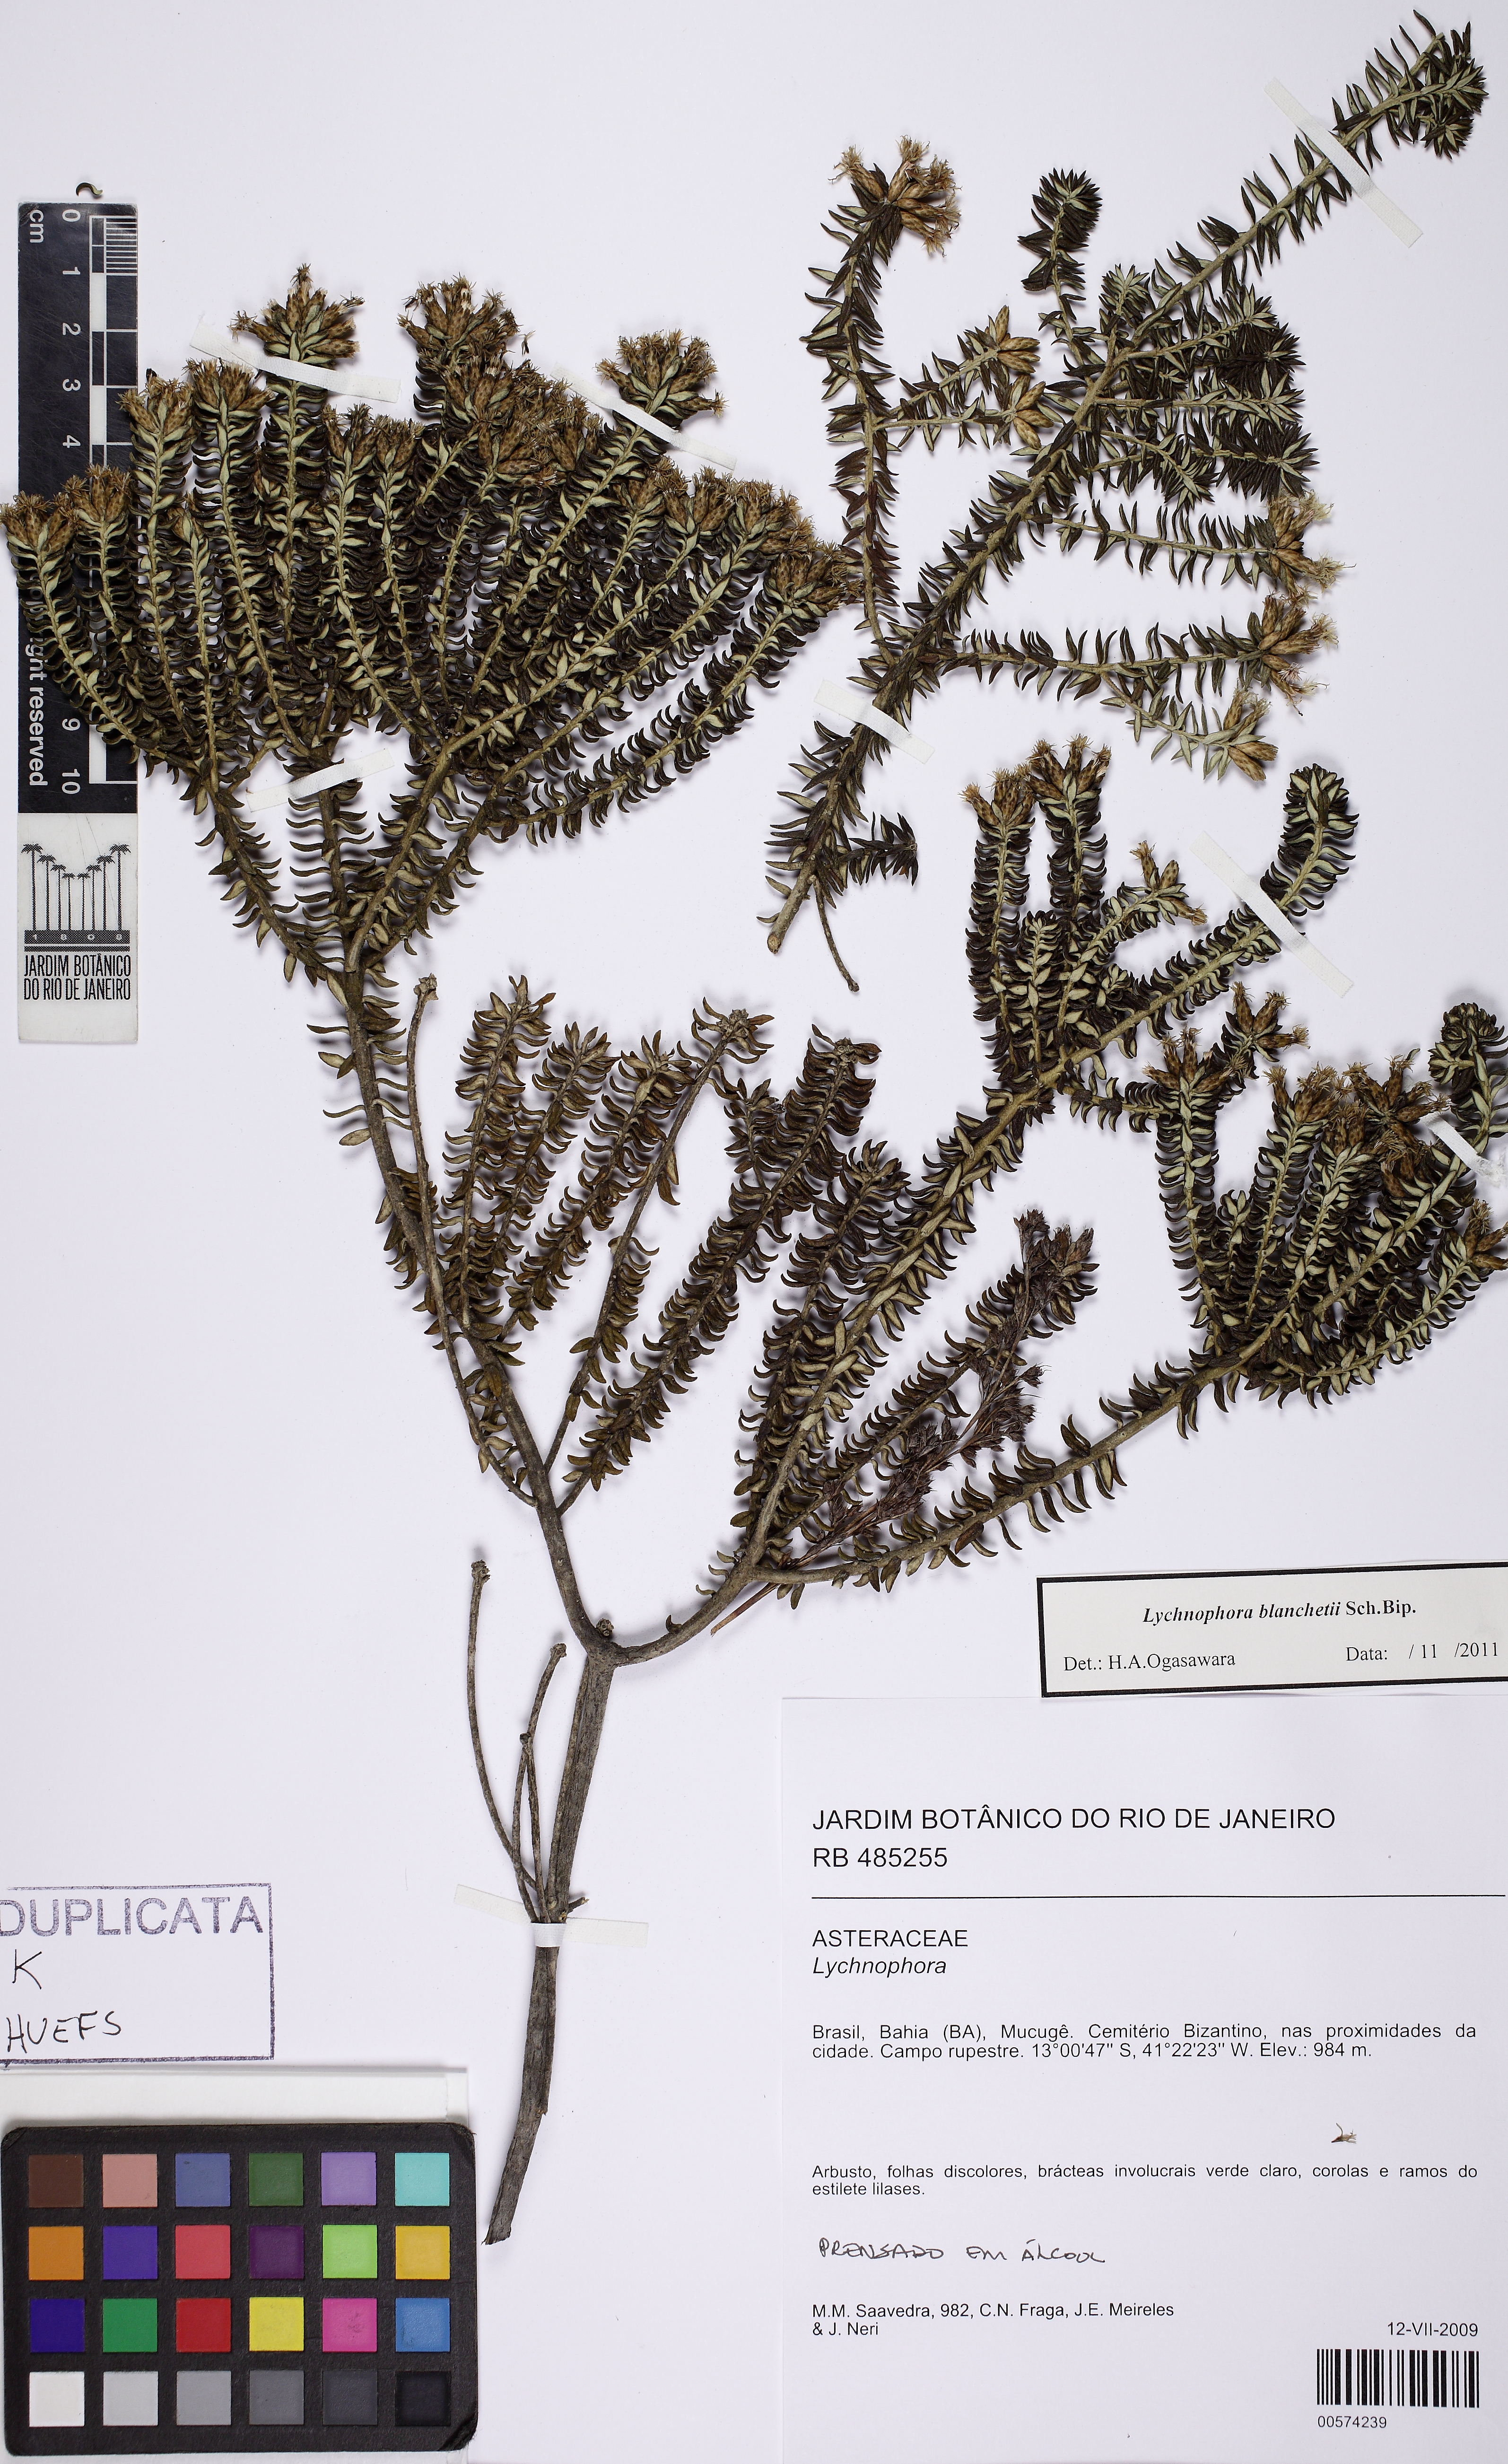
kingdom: Plantae
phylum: Tracheophyta
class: Magnoliopsida
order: Asterales
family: Asteraceae
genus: Lychnophorella
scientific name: Lychnophorella regis
